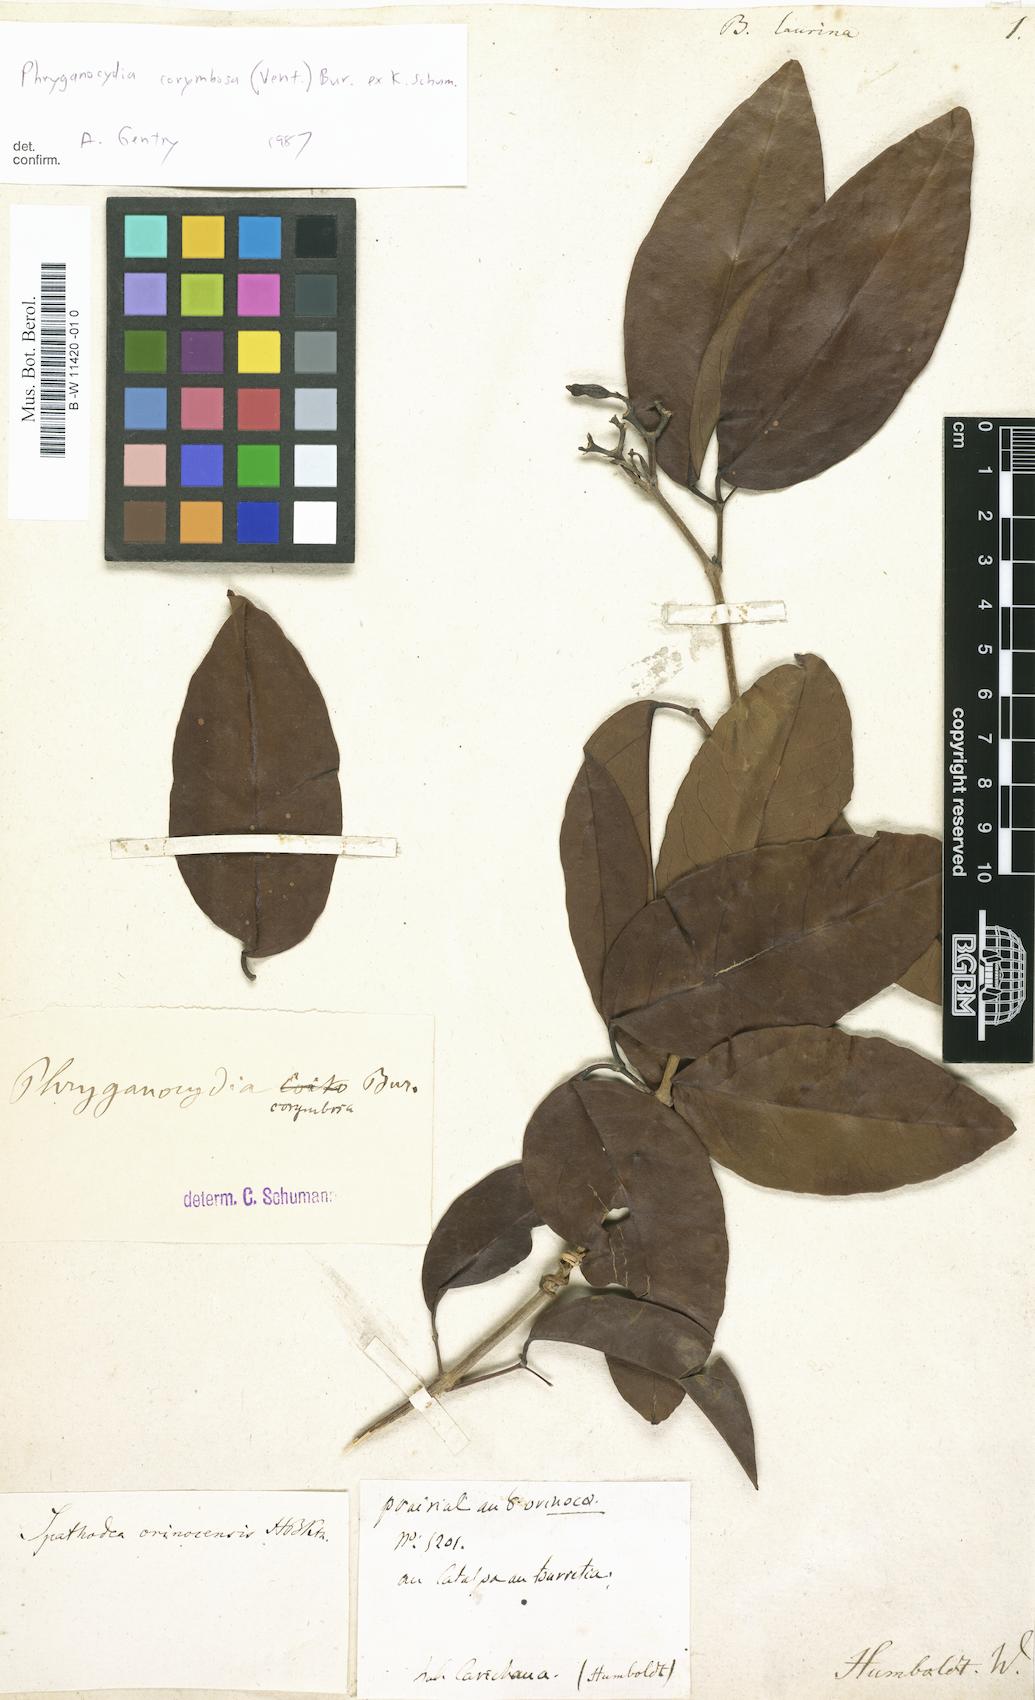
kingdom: Plantae
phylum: Tracheophyta
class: Magnoliopsida
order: Lamiales
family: Bignoniaceae
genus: Bignonia
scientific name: Bignonia
